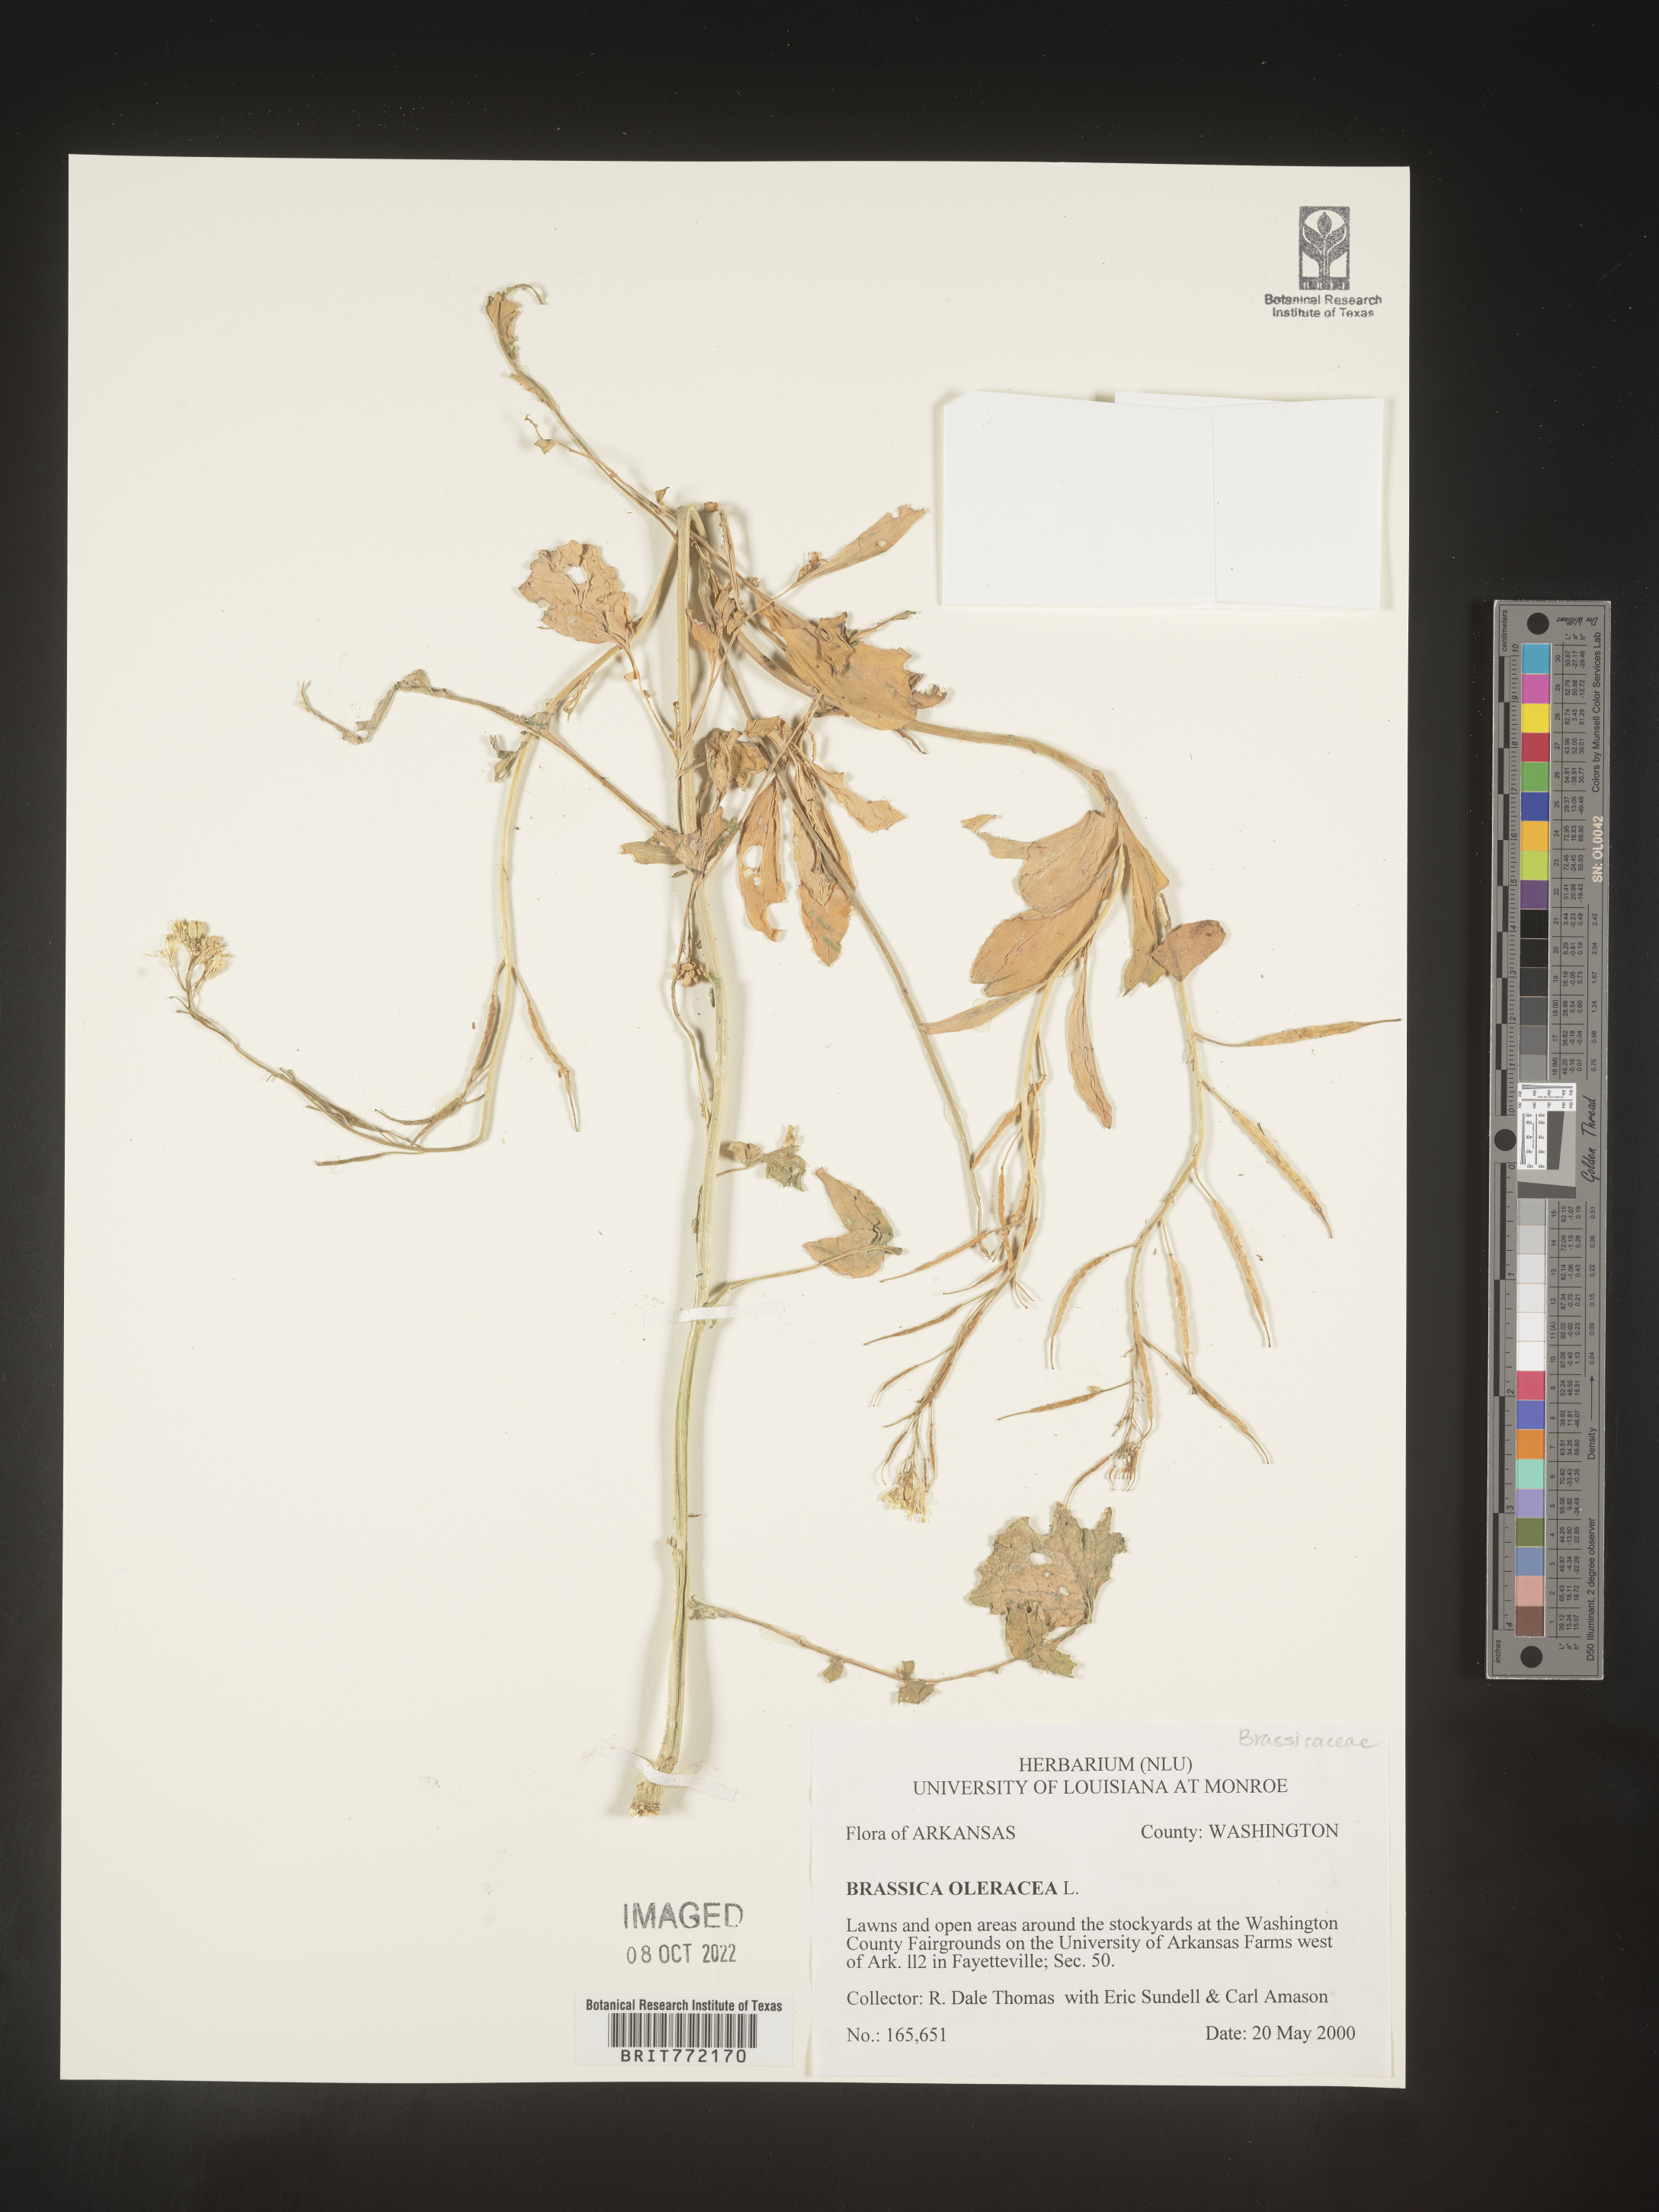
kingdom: Plantae
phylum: Tracheophyta
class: Magnoliopsida
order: Brassicales
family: Brassicaceae
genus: Brassica
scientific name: Brassica oleracea
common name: Cabbage
